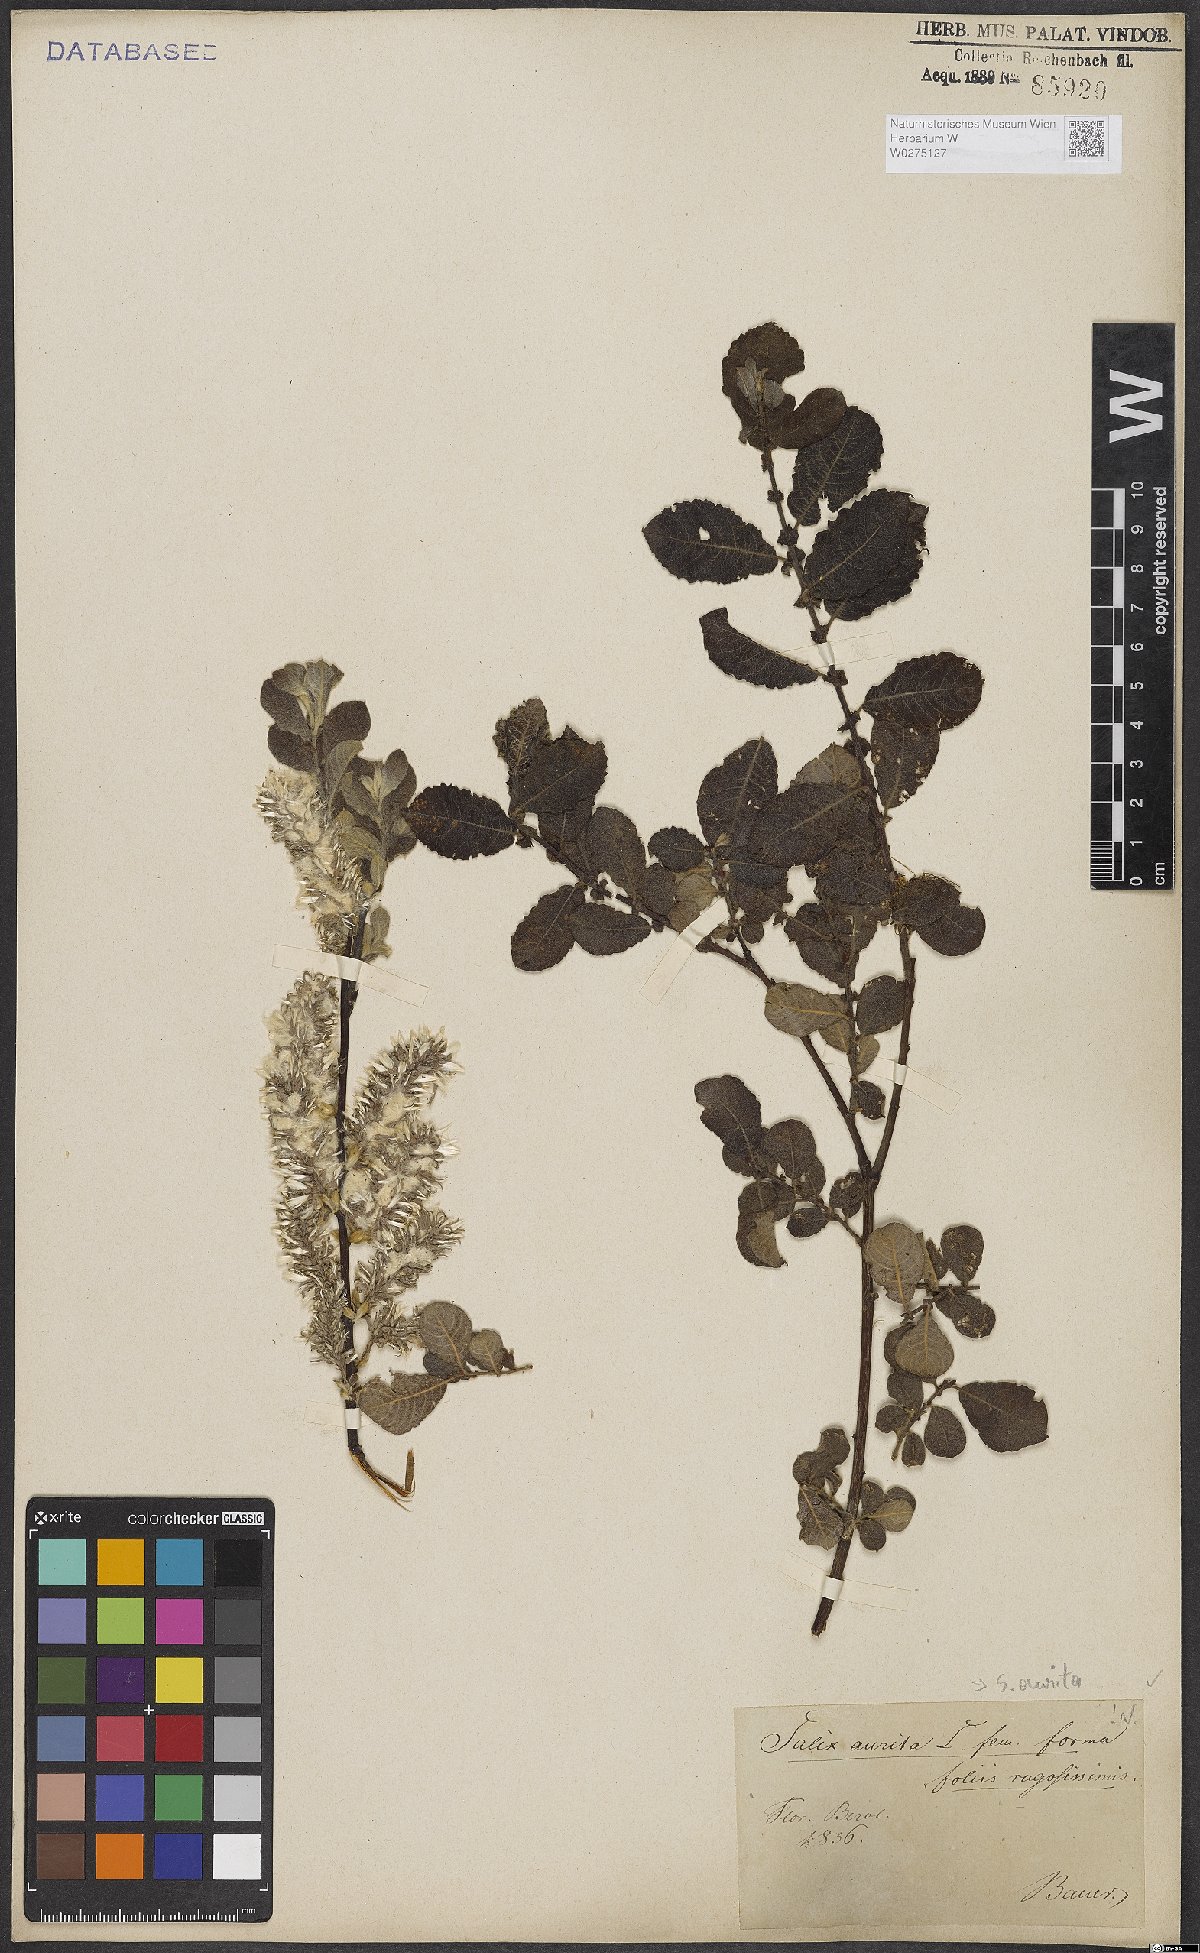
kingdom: Plantae
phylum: Tracheophyta
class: Magnoliopsida
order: Malpighiales
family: Salicaceae
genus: Salix
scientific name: Salix aurita
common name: Eared willow
